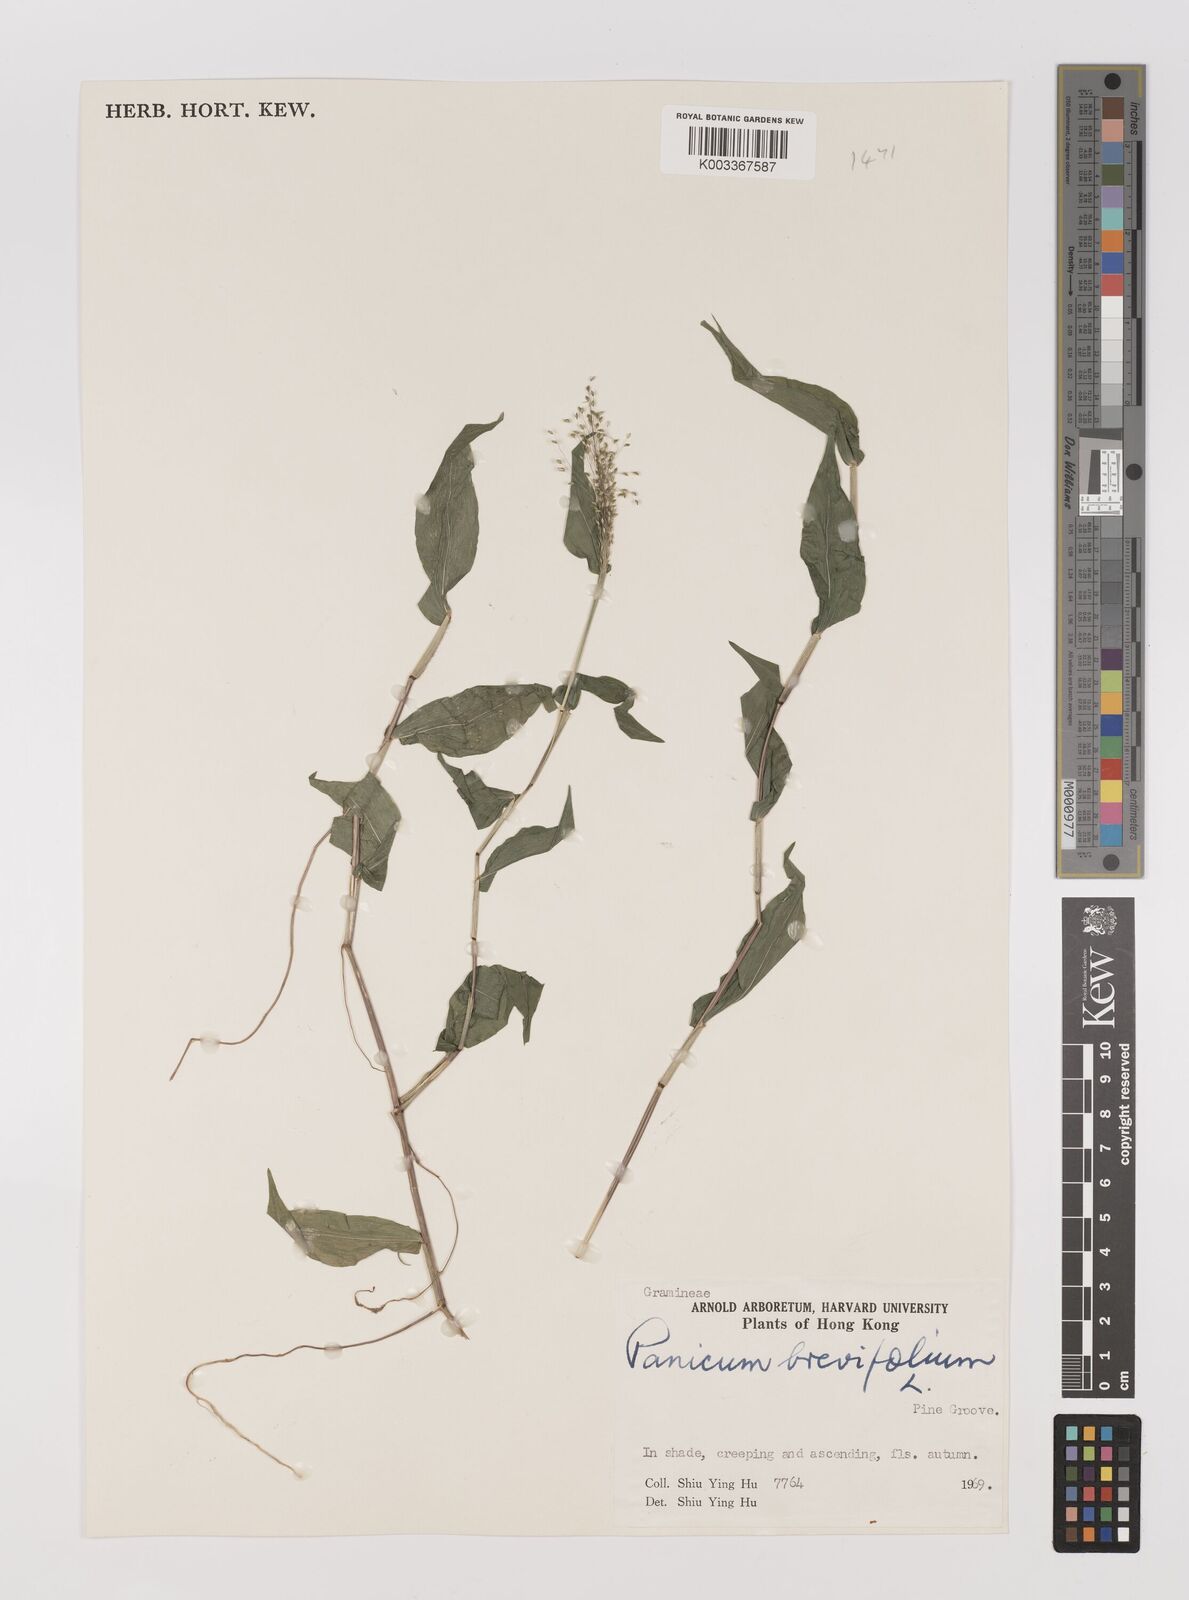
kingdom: Plantae
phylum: Tracheophyta
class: Liliopsida
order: Poales
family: Poaceae
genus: Panicum
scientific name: Panicum brevifolium
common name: Shortleaf panic grass
